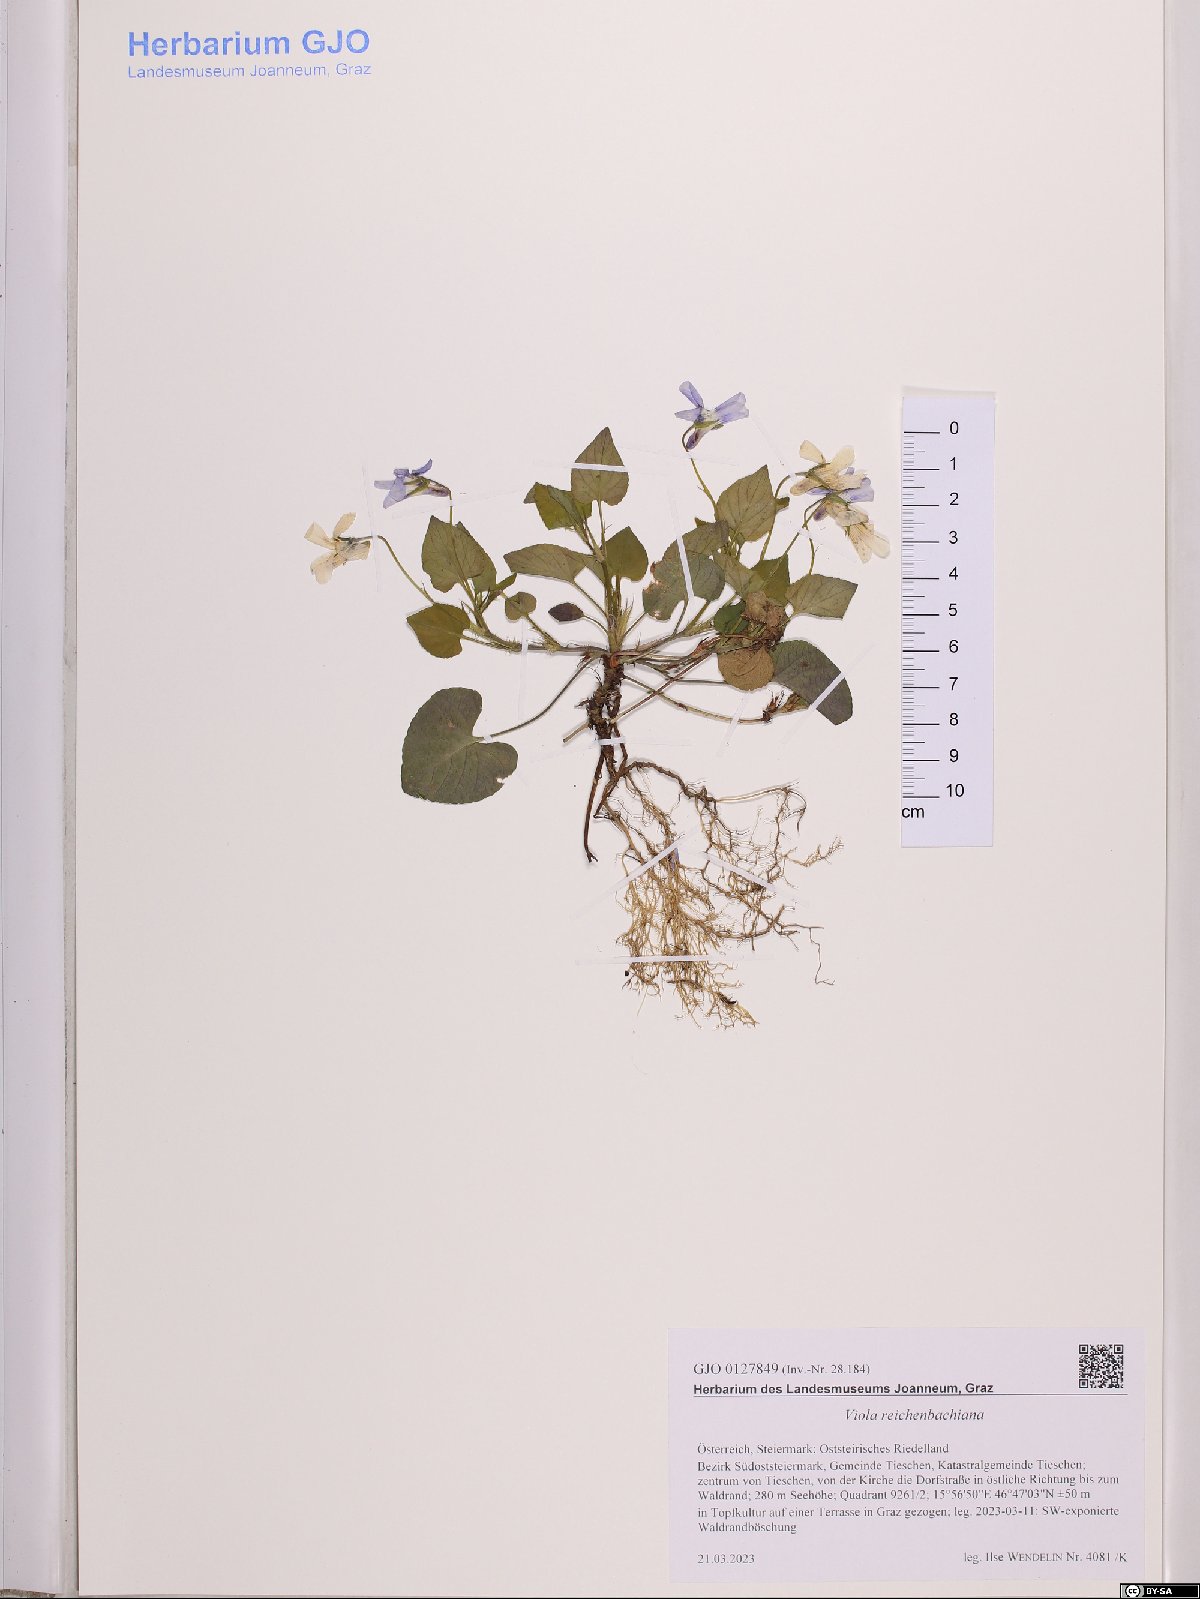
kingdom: Plantae
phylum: Tracheophyta
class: Magnoliopsida
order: Malpighiales
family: Violaceae
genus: Viola
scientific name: Viola reichenbachiana
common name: Early dog-violet
